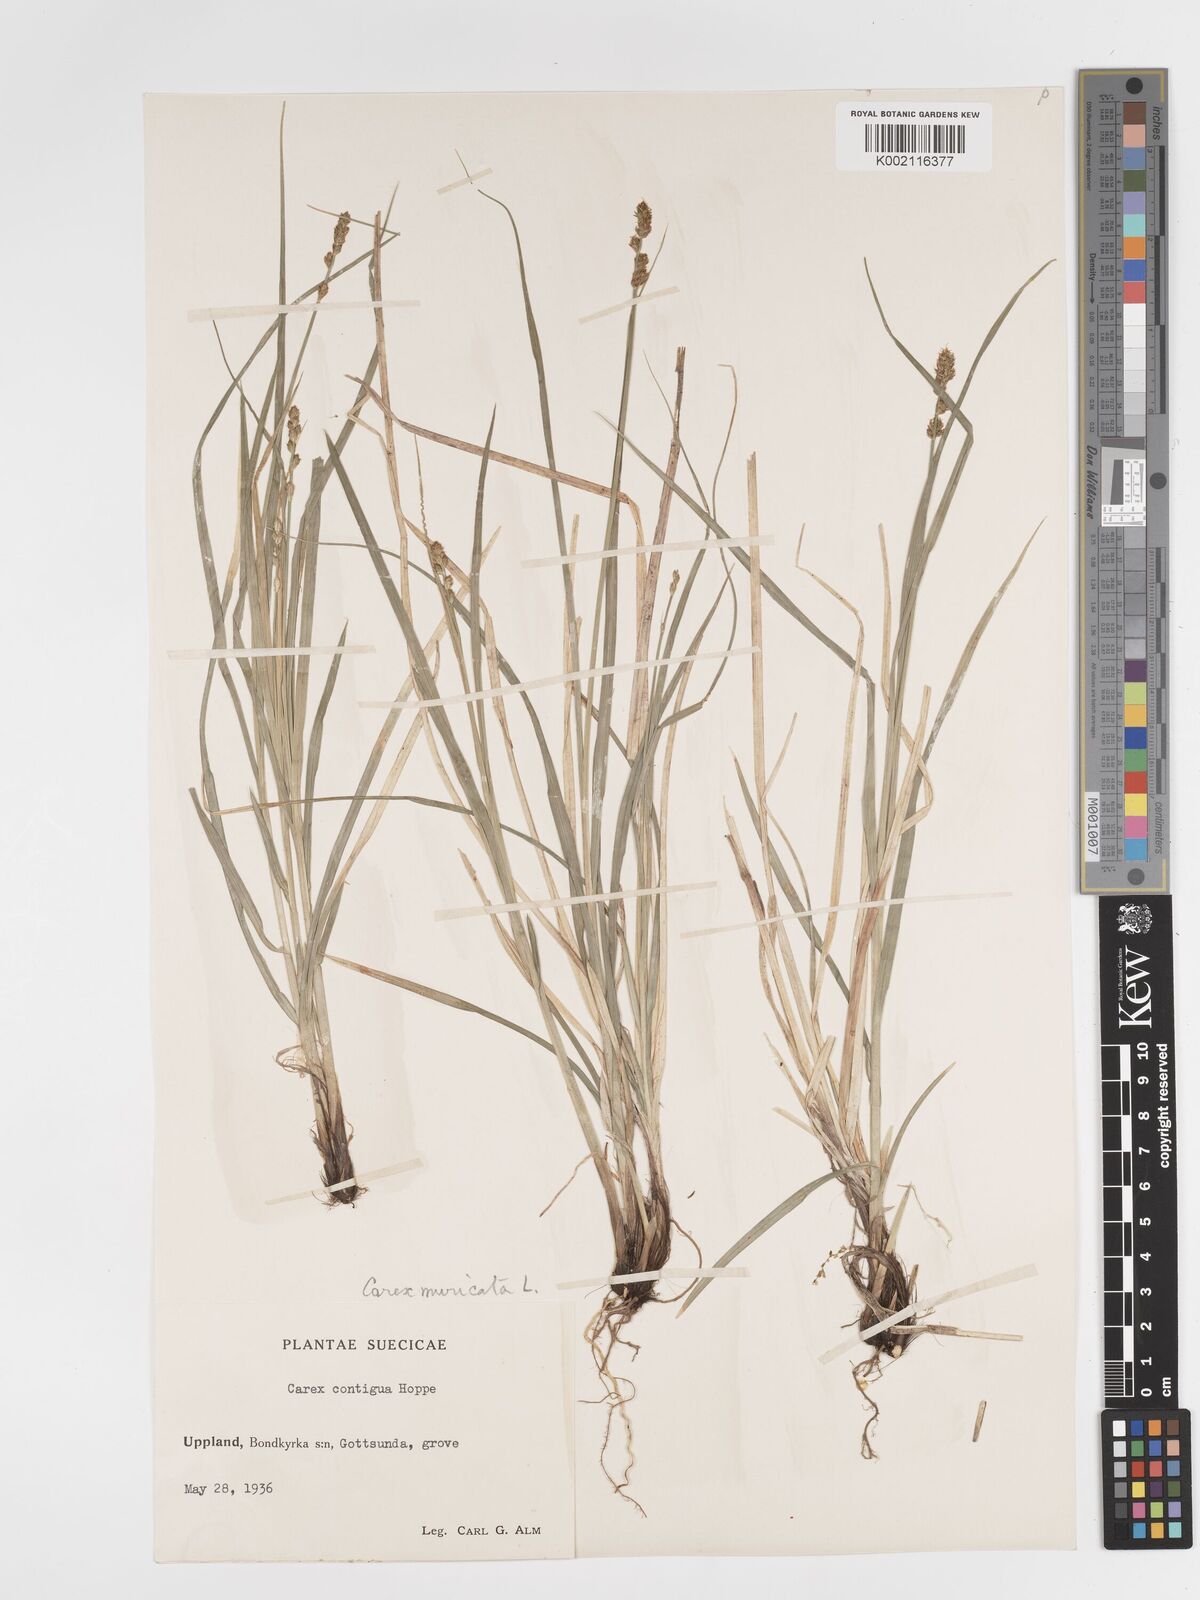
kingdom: Plantae
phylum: Tracheophyta
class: Liliopsida
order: Poales
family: Cyperaceae
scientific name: Cyperaceae
